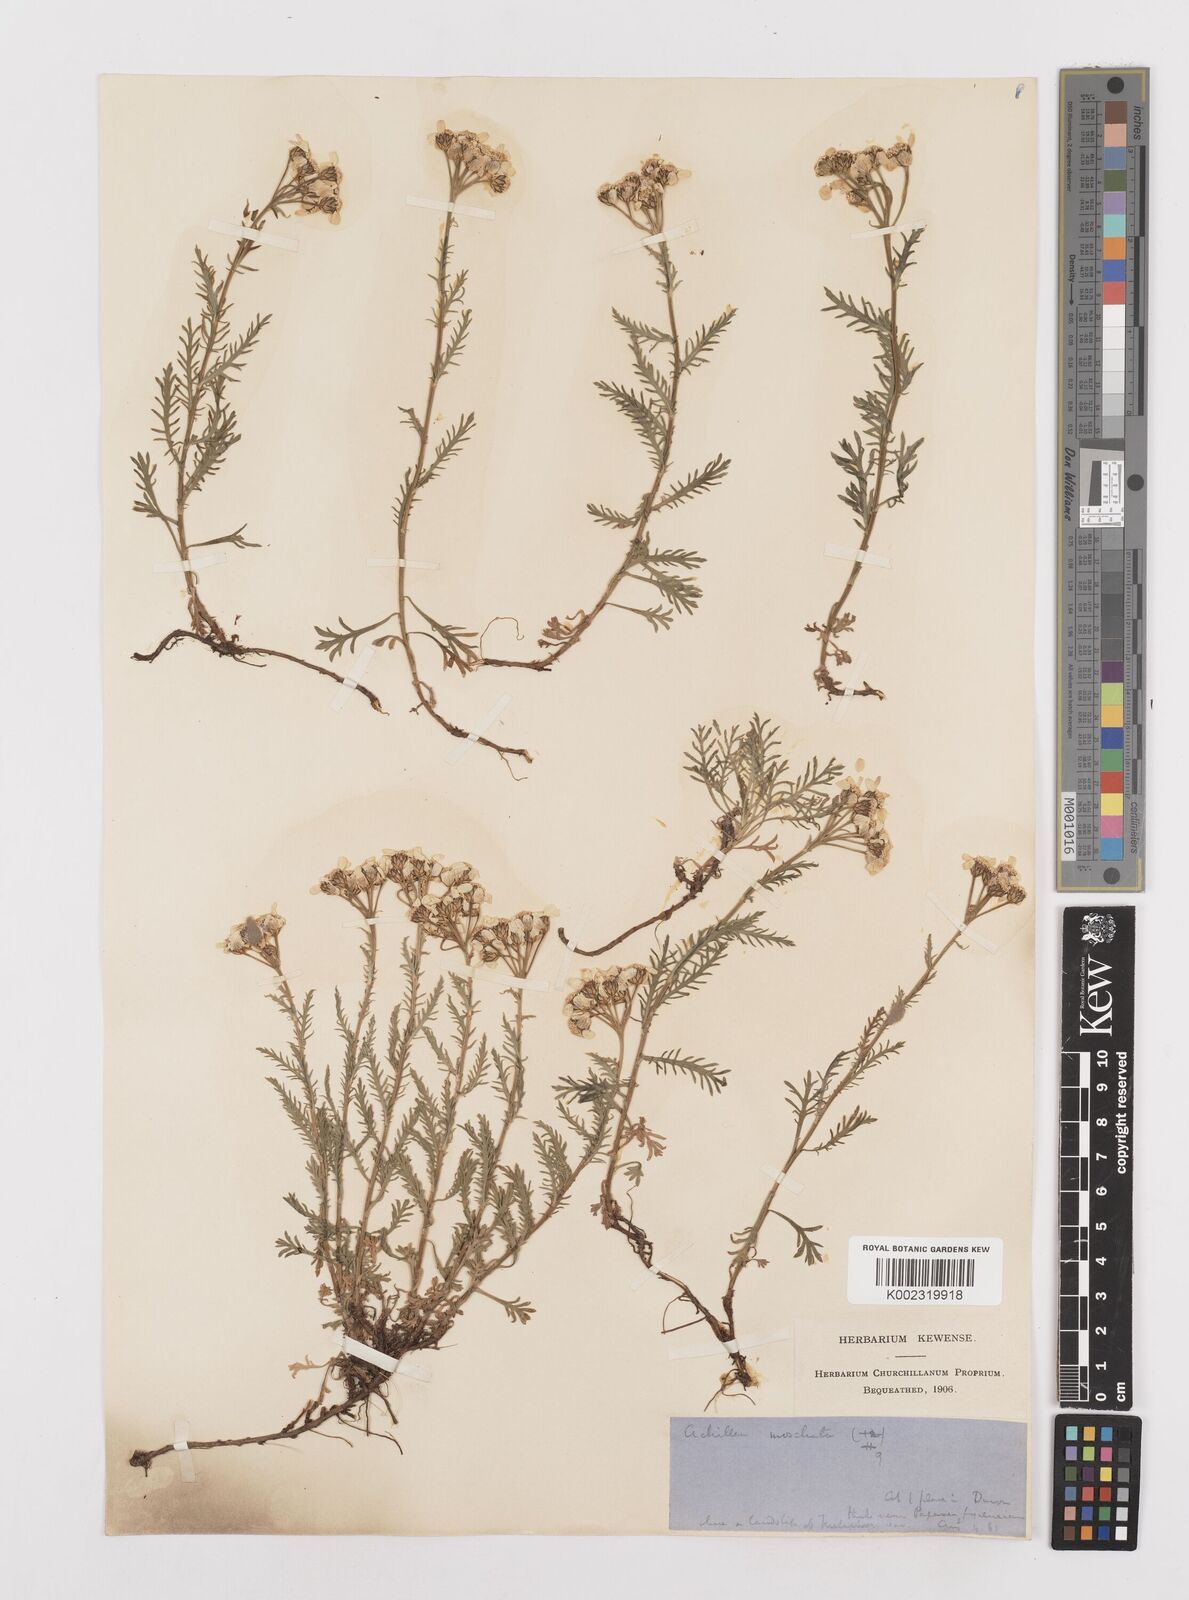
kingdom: Plantae
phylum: Tracheophyta
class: Magnoliopsida
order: Asterales
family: Asteraceae
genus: Achillea
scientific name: Achillea erba-rotta
